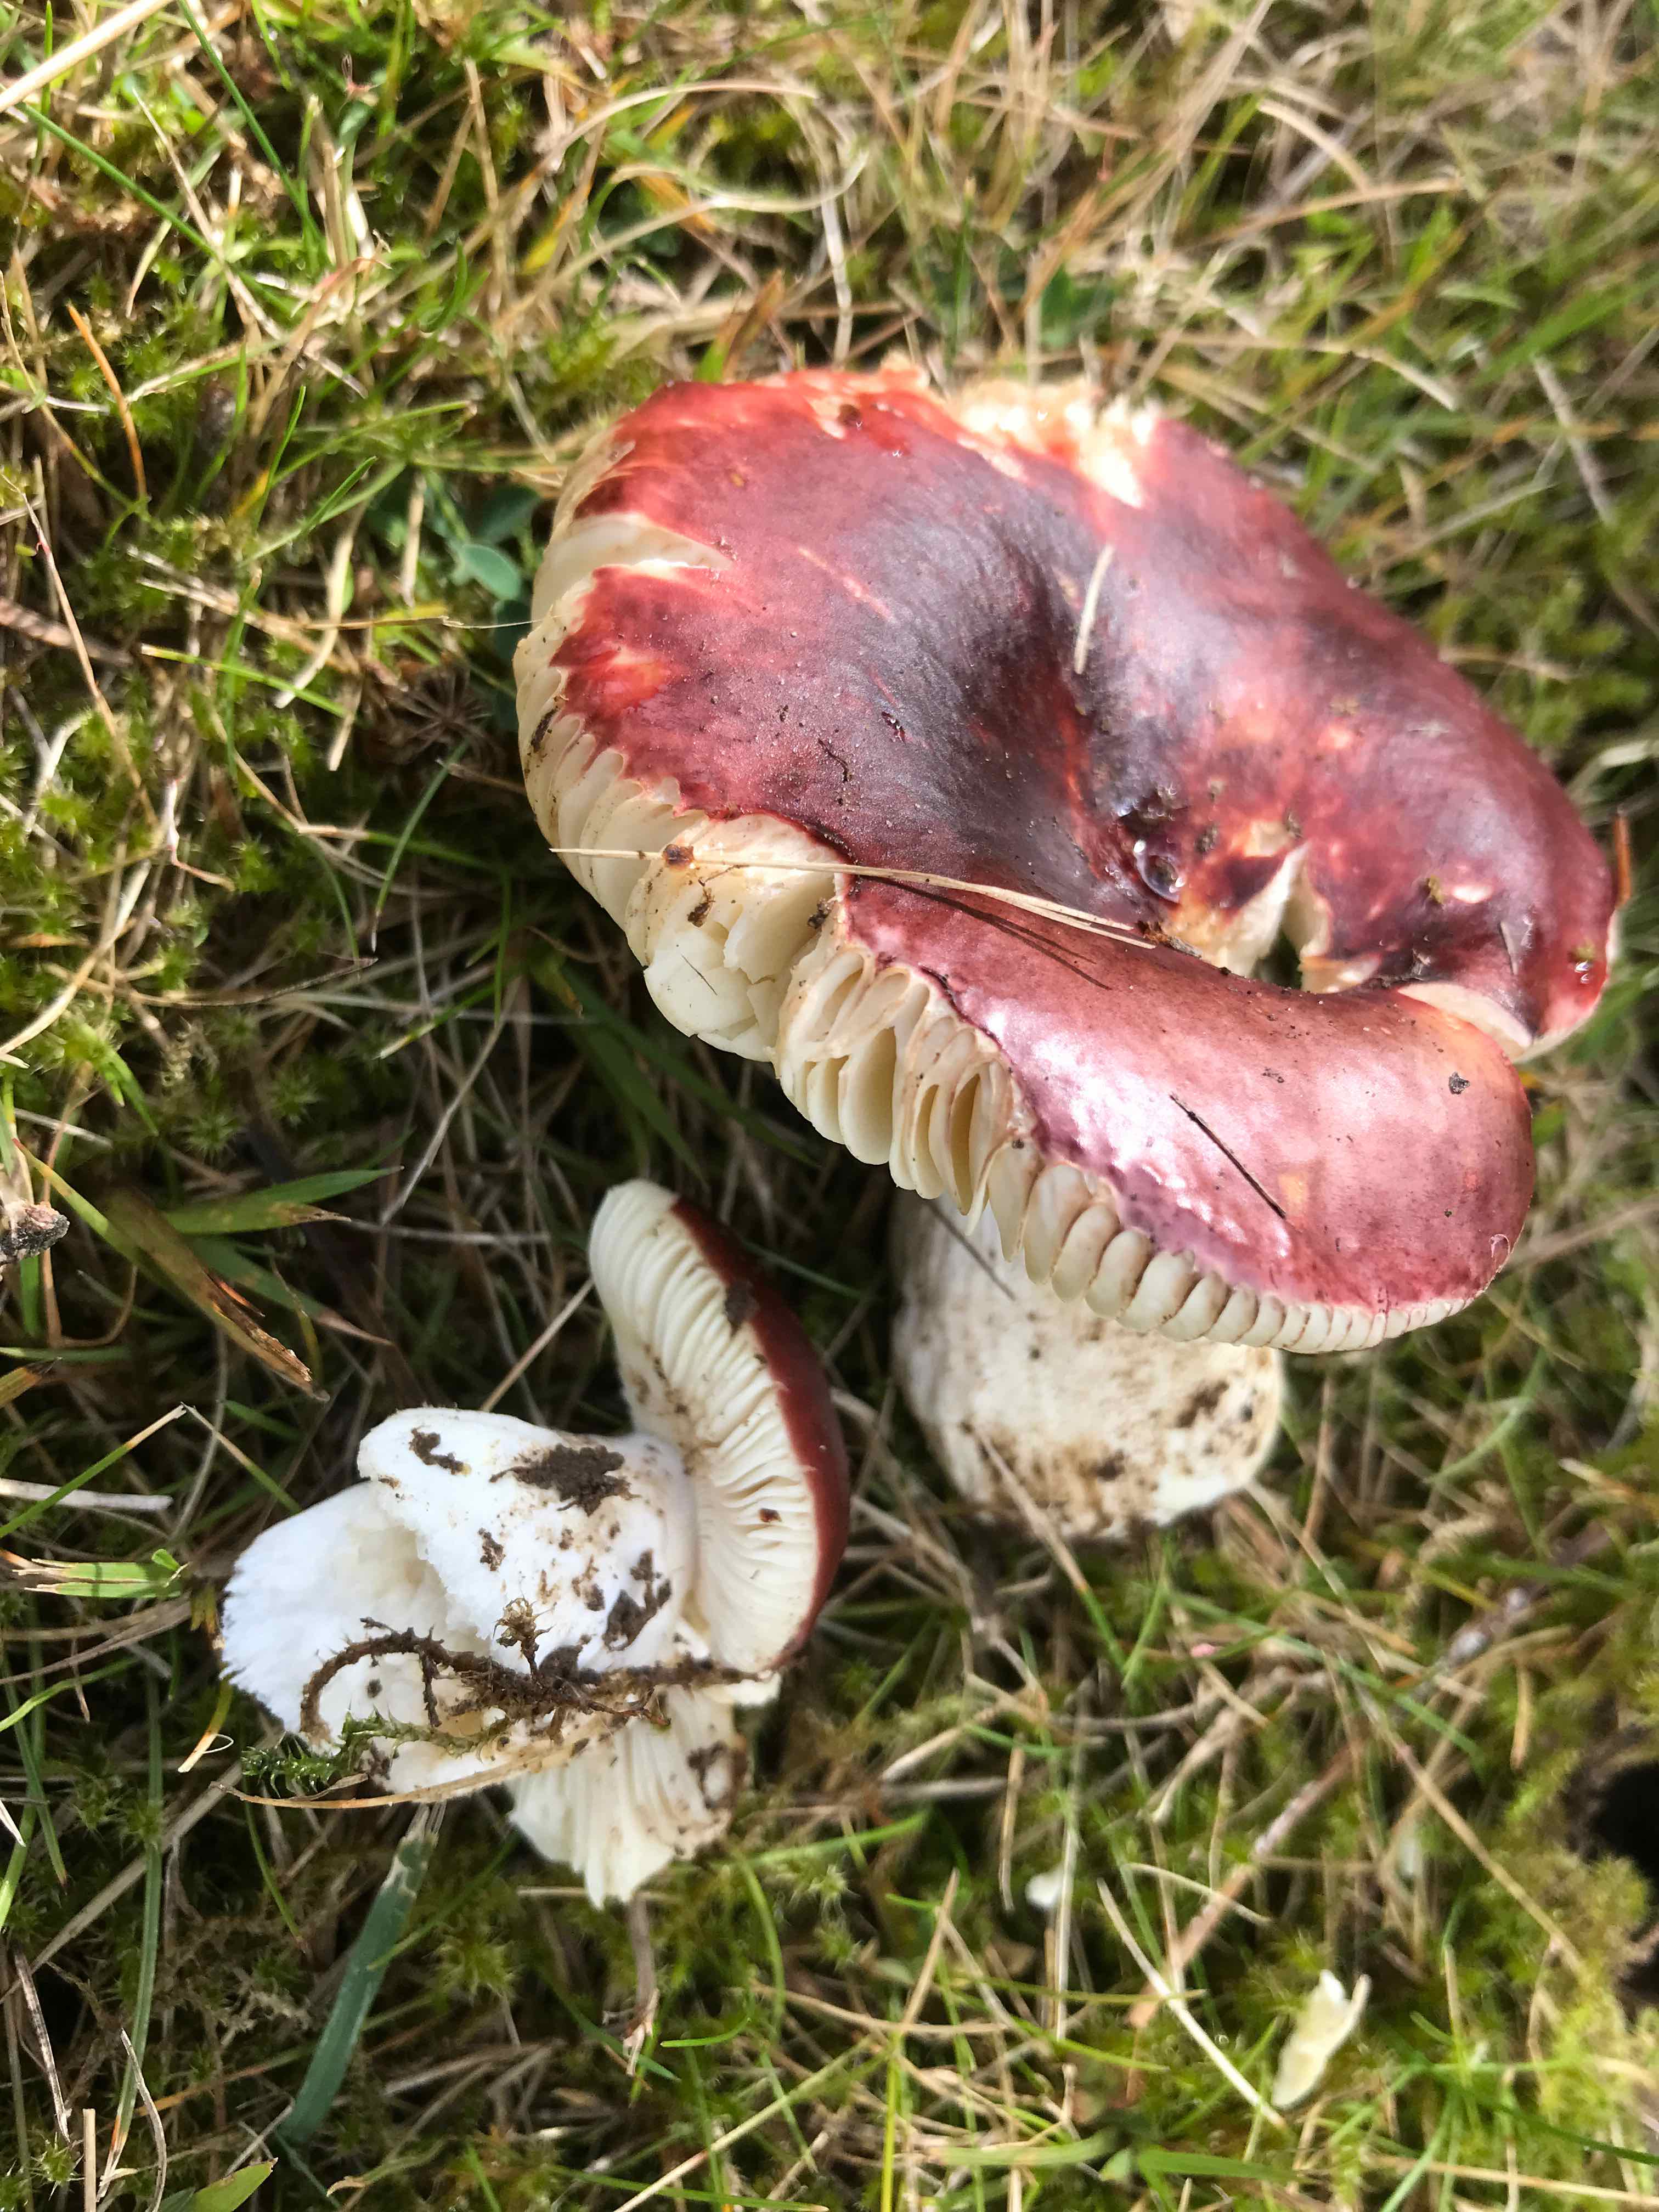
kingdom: Fungi
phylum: Basidiomycota
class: Agaricomycetes
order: Russulales
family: Russulaceae
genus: Russula
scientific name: Russula cessans
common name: fyrre-skørhat
